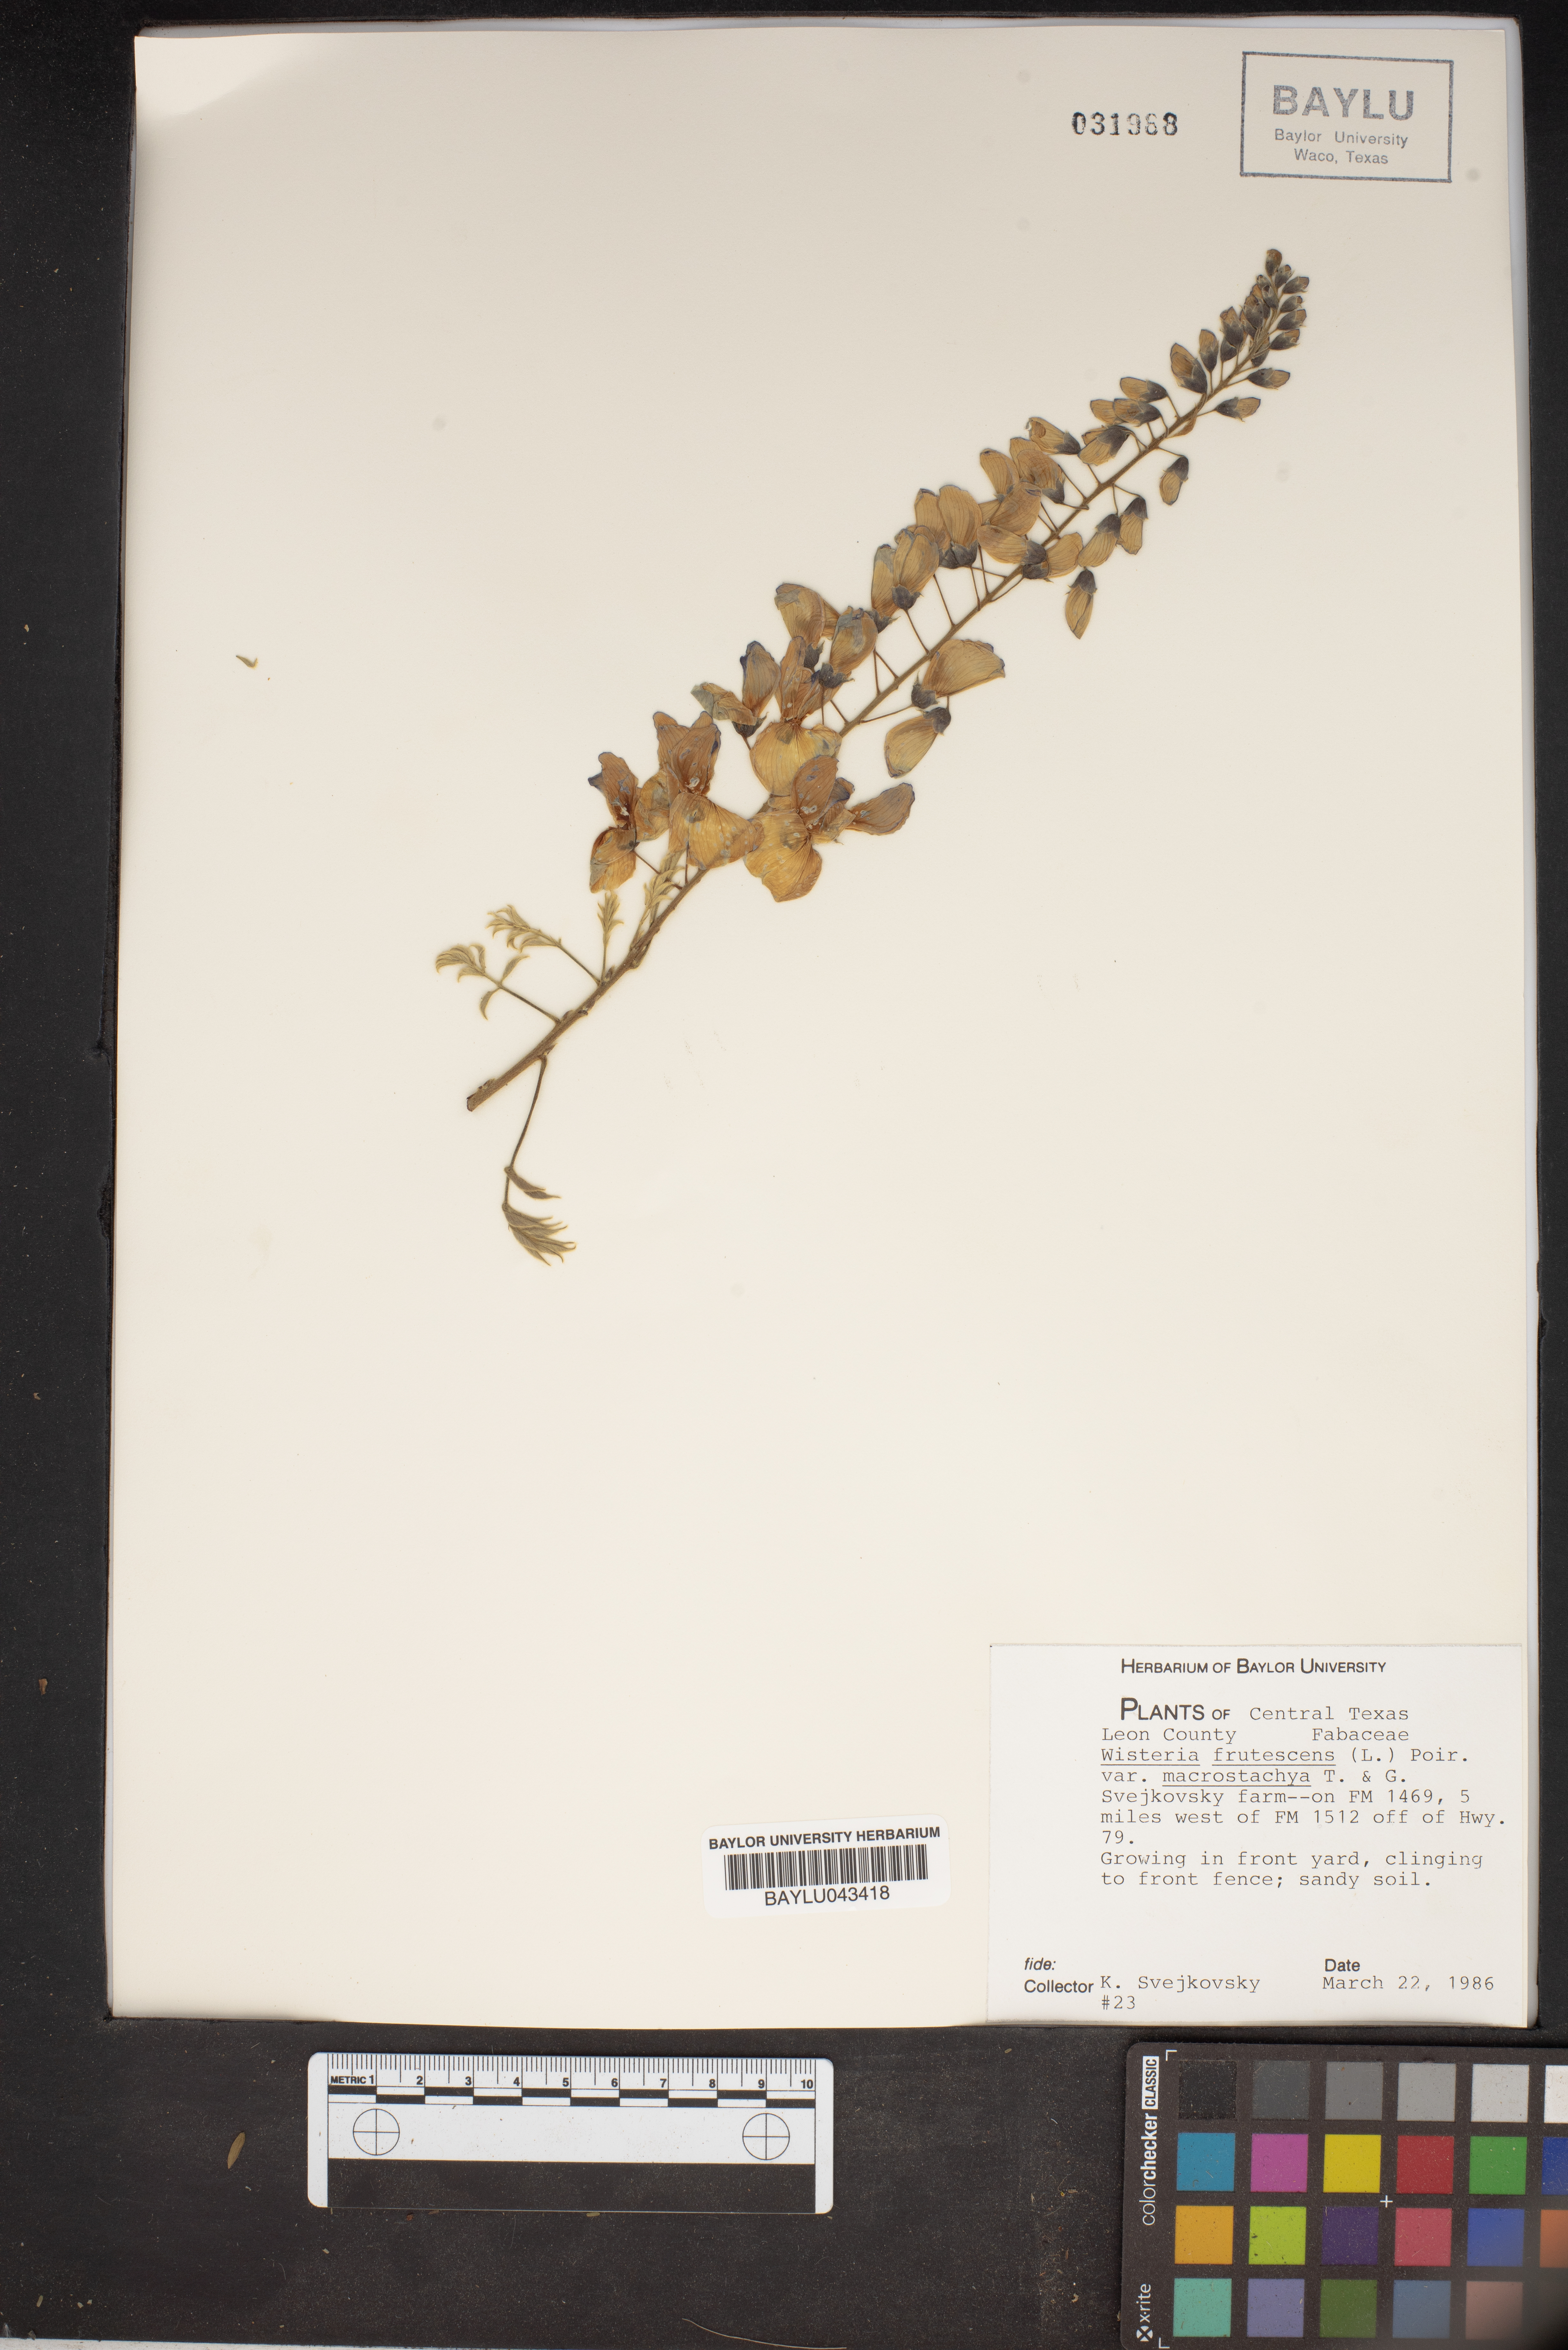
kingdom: Plantae
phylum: Tracheophyta
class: Magnoliopsida
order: Fabales
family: Fabaceae
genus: Wisteria
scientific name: Wisteria frutescens
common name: American wisteria
